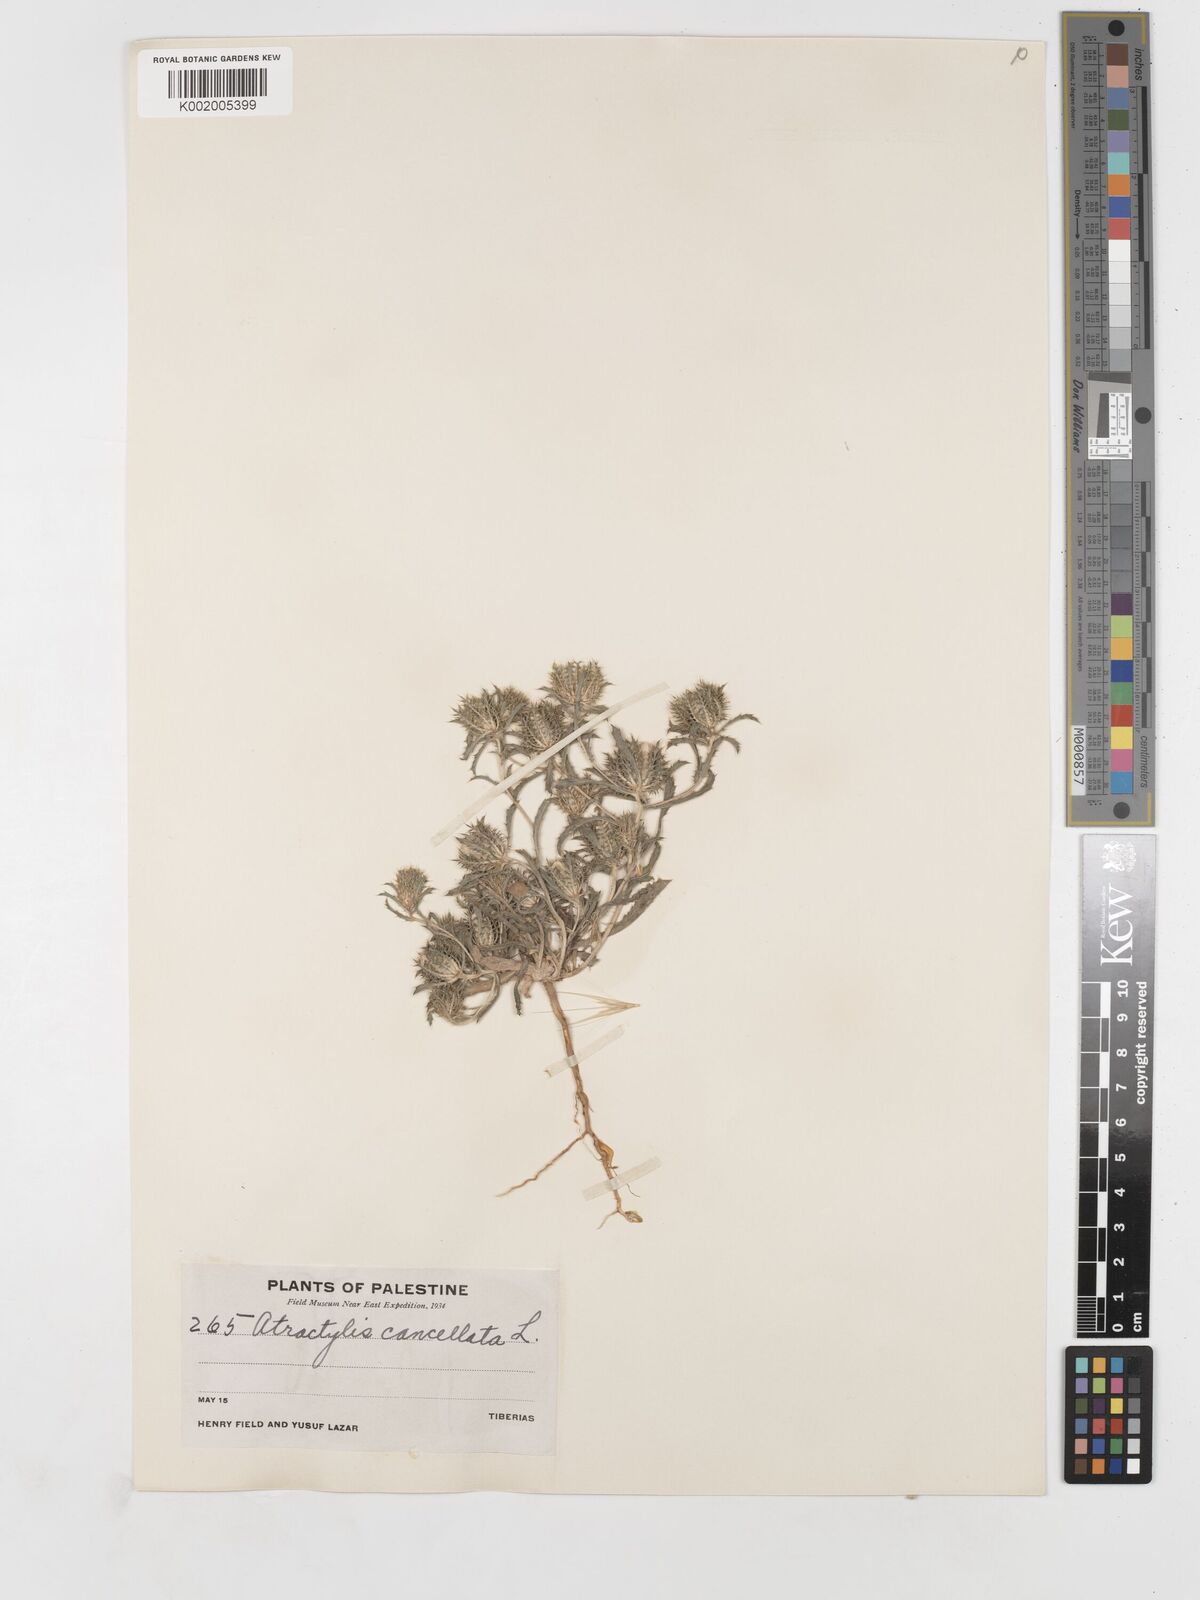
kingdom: Plantae
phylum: Tracheophyta
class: Magnoliopsida
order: Asterales
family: Asteraceae
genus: Atractylis
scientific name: Atractylis cancellata
